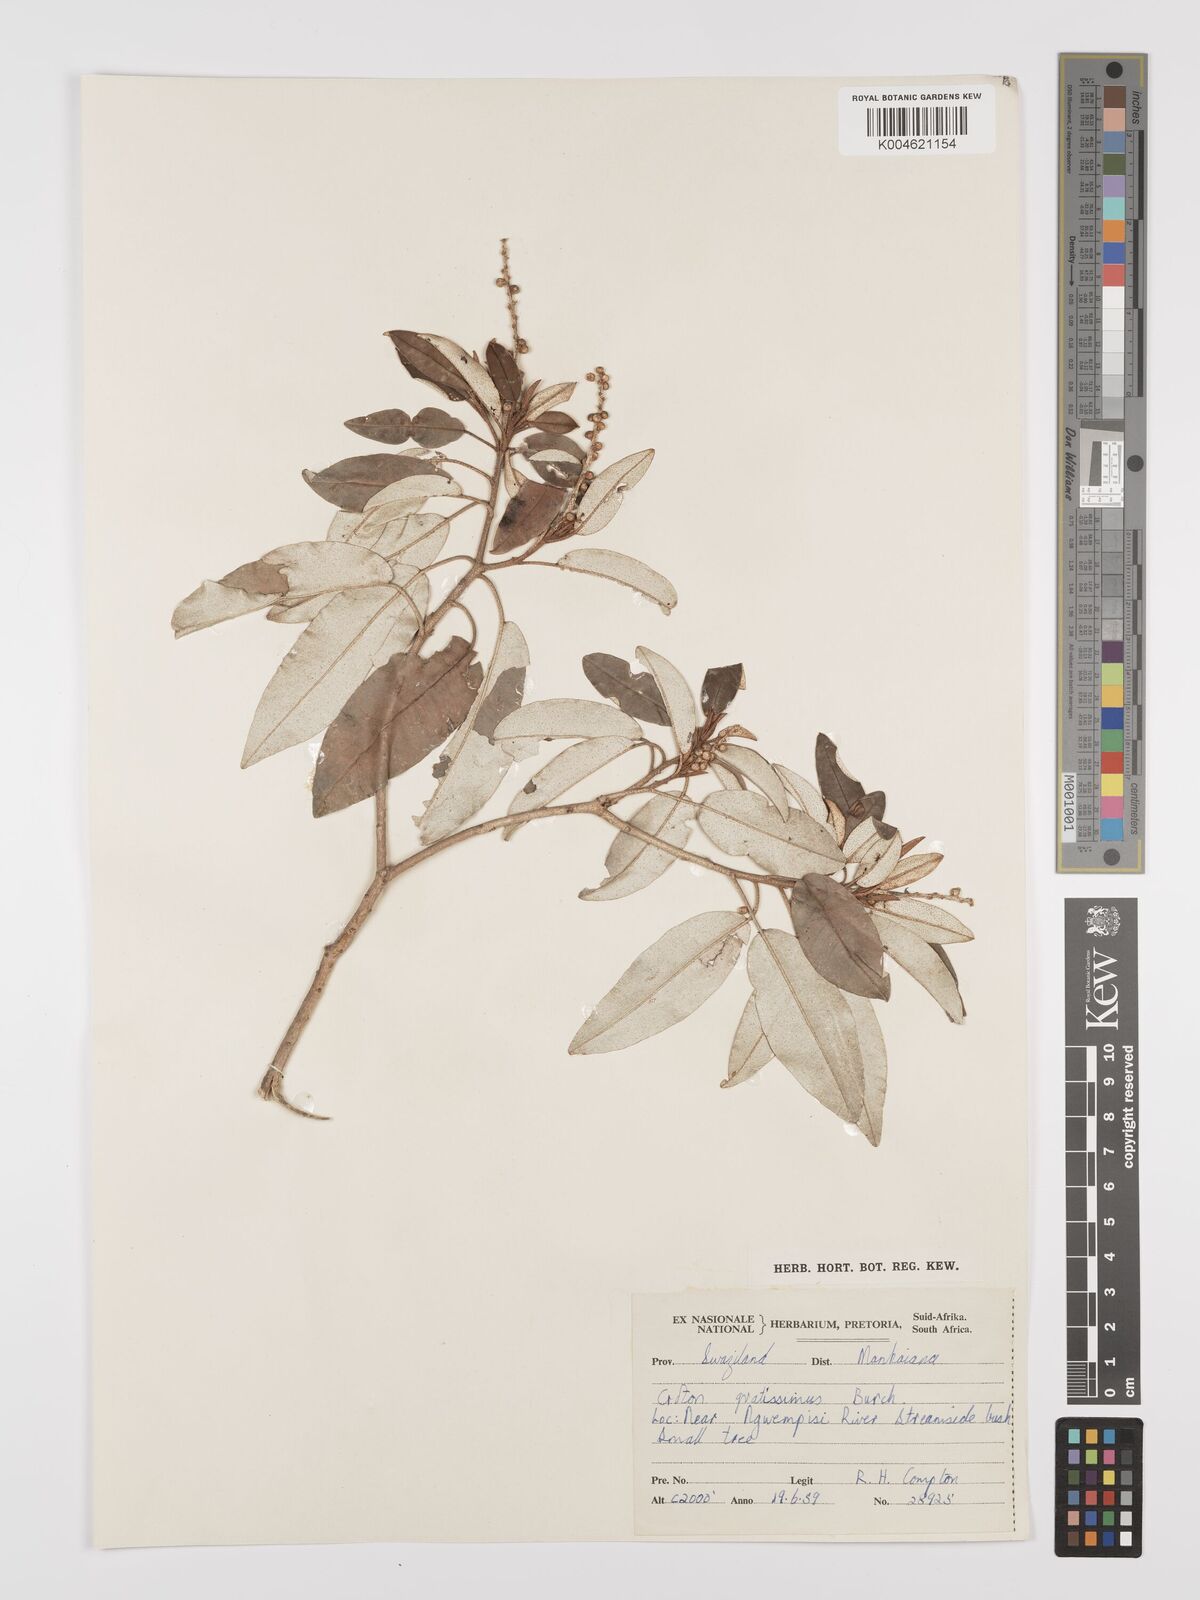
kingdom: Plantae
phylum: Tracheophyta
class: Magnoliopsida
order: Malpighiales
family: Euphorbiaceae
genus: Croton
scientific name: Croton gratissimus
